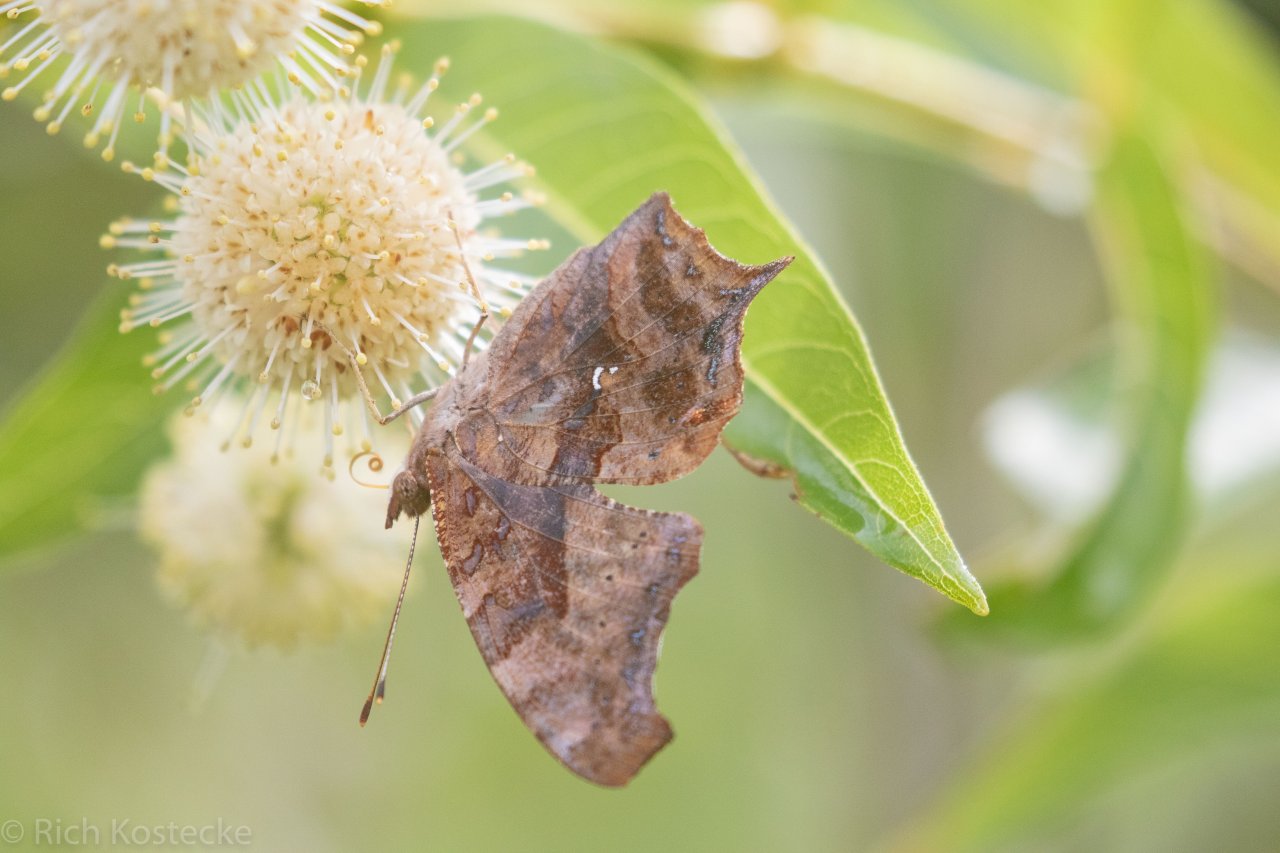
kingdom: Animalia
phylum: Arthropoda
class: Insecta
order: Lepidoptera
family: Nymphalidae
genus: Polygonia
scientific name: Polygonia interrogationis
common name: Question Mark
